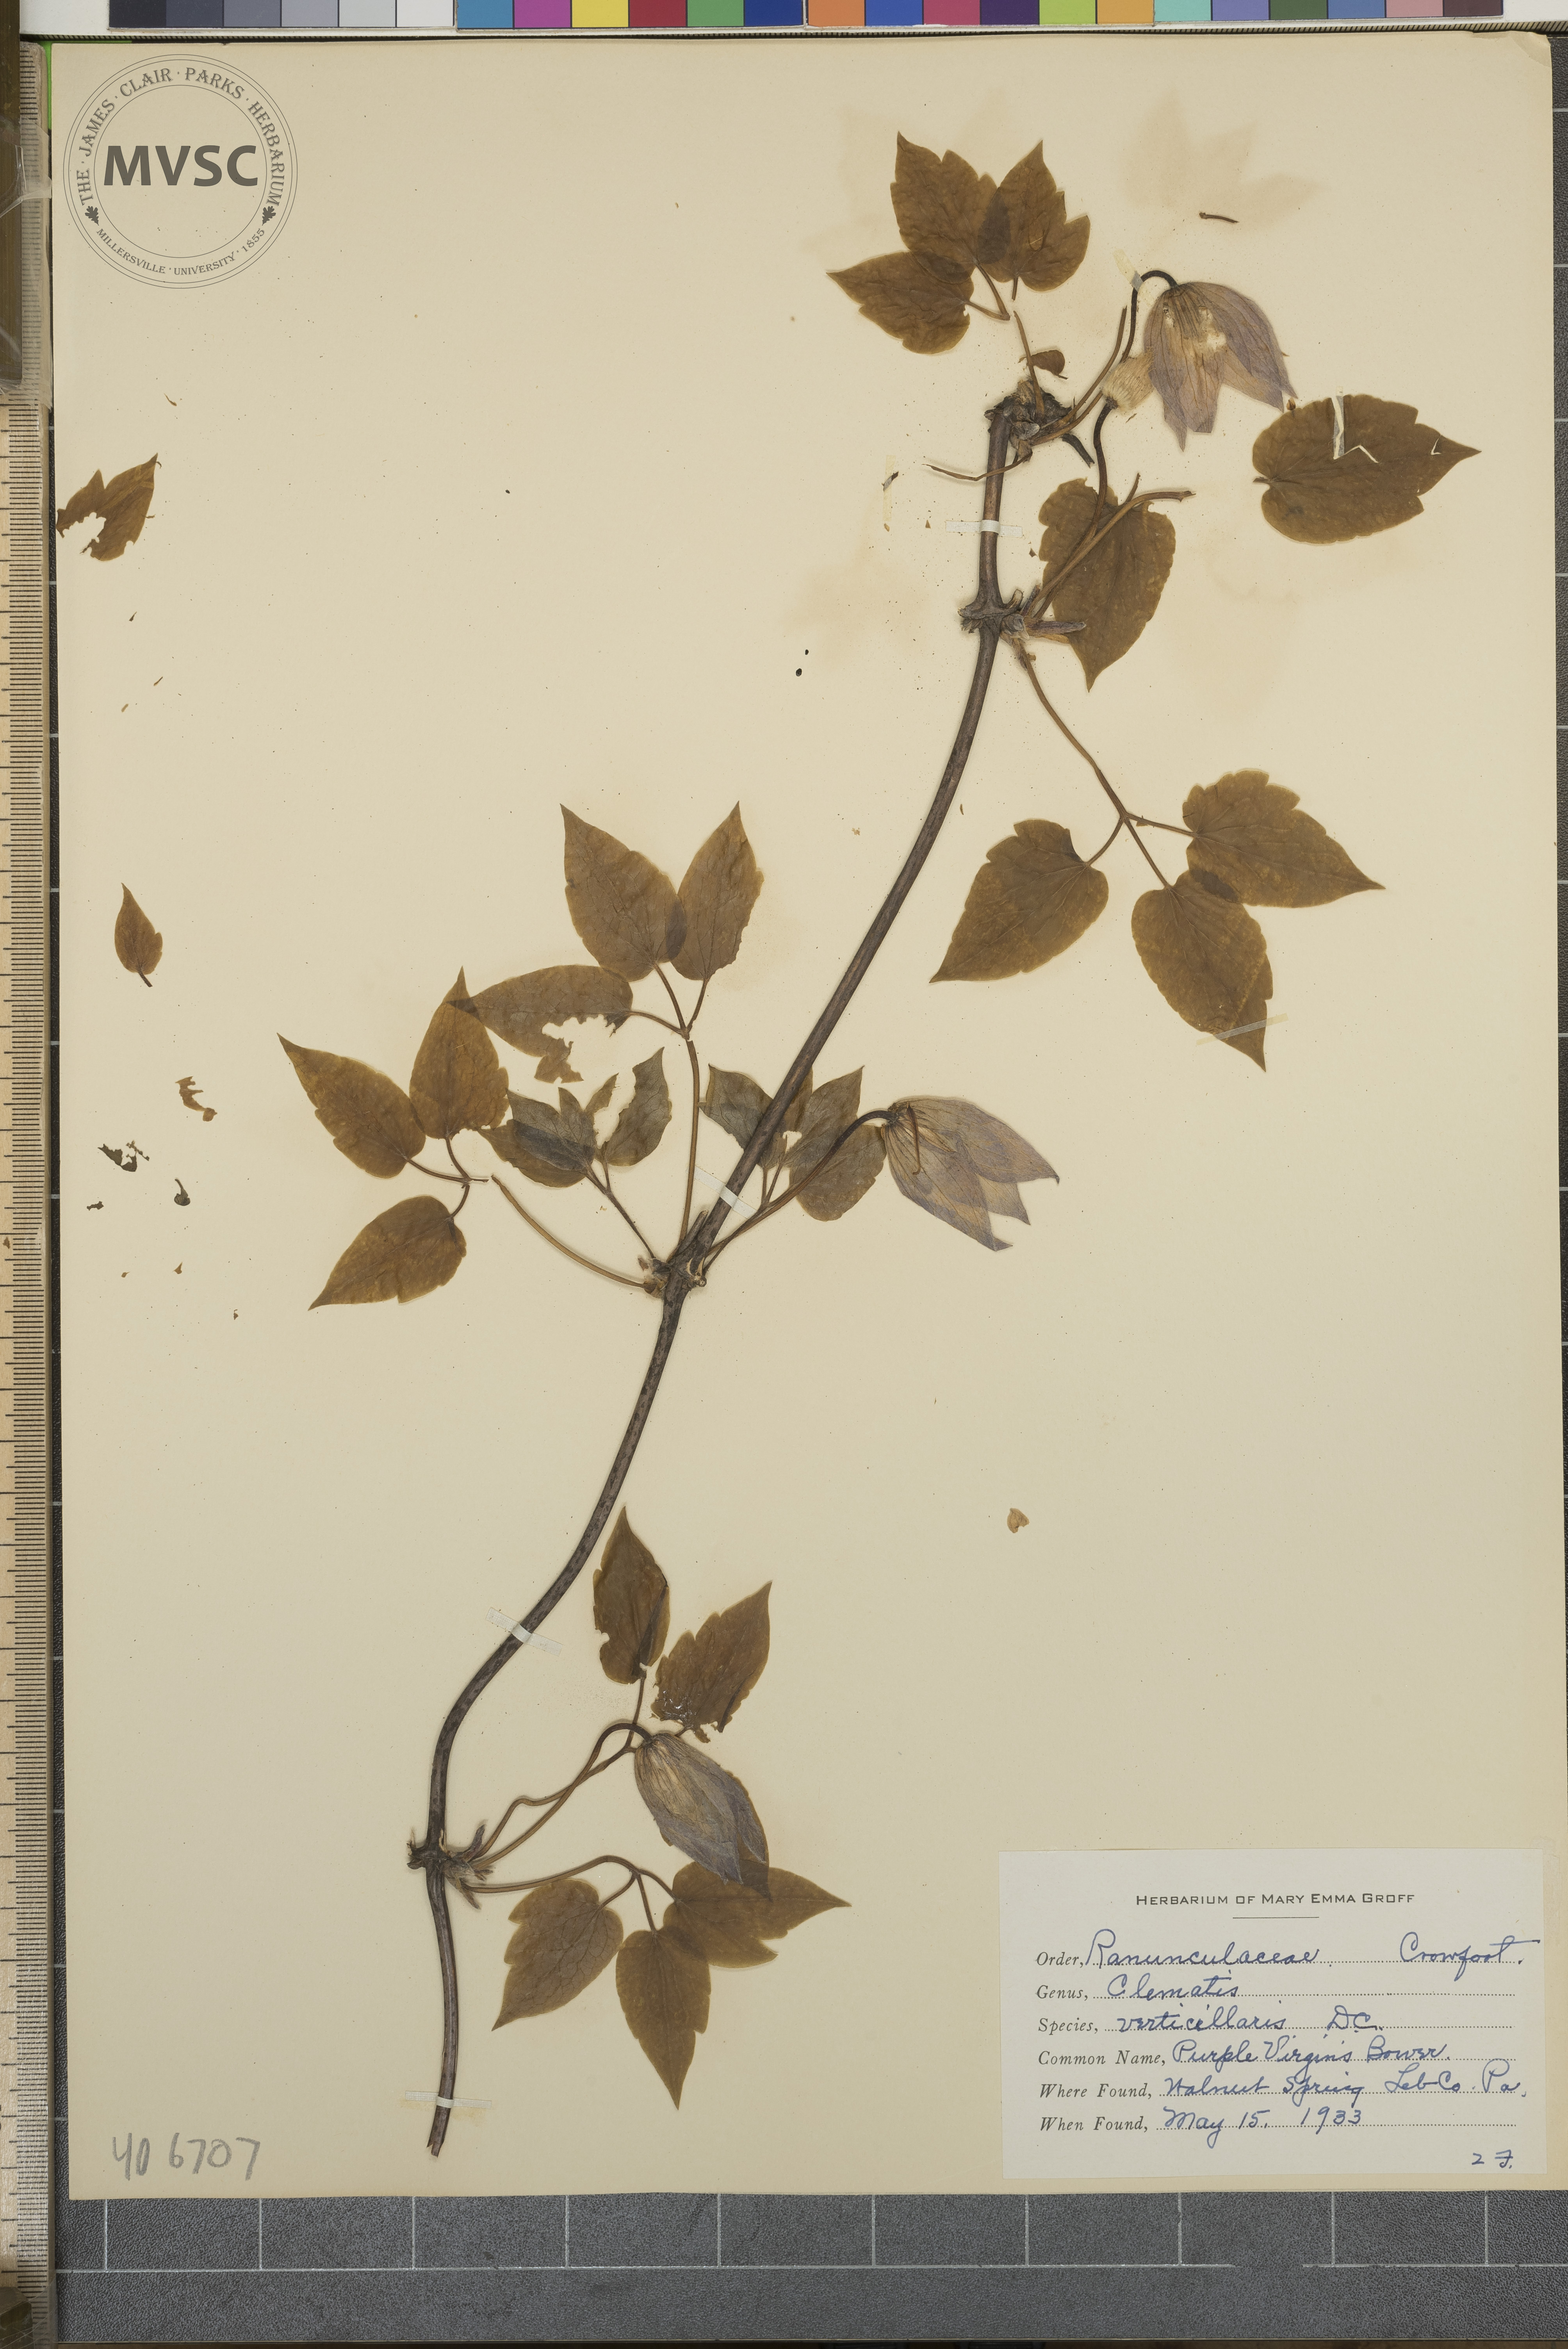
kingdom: Plantae
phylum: Tracheophyta
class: Magnoliopsida
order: Ranunculales
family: Ranunculaceae
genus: Clematis
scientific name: Clematis occidentalis
